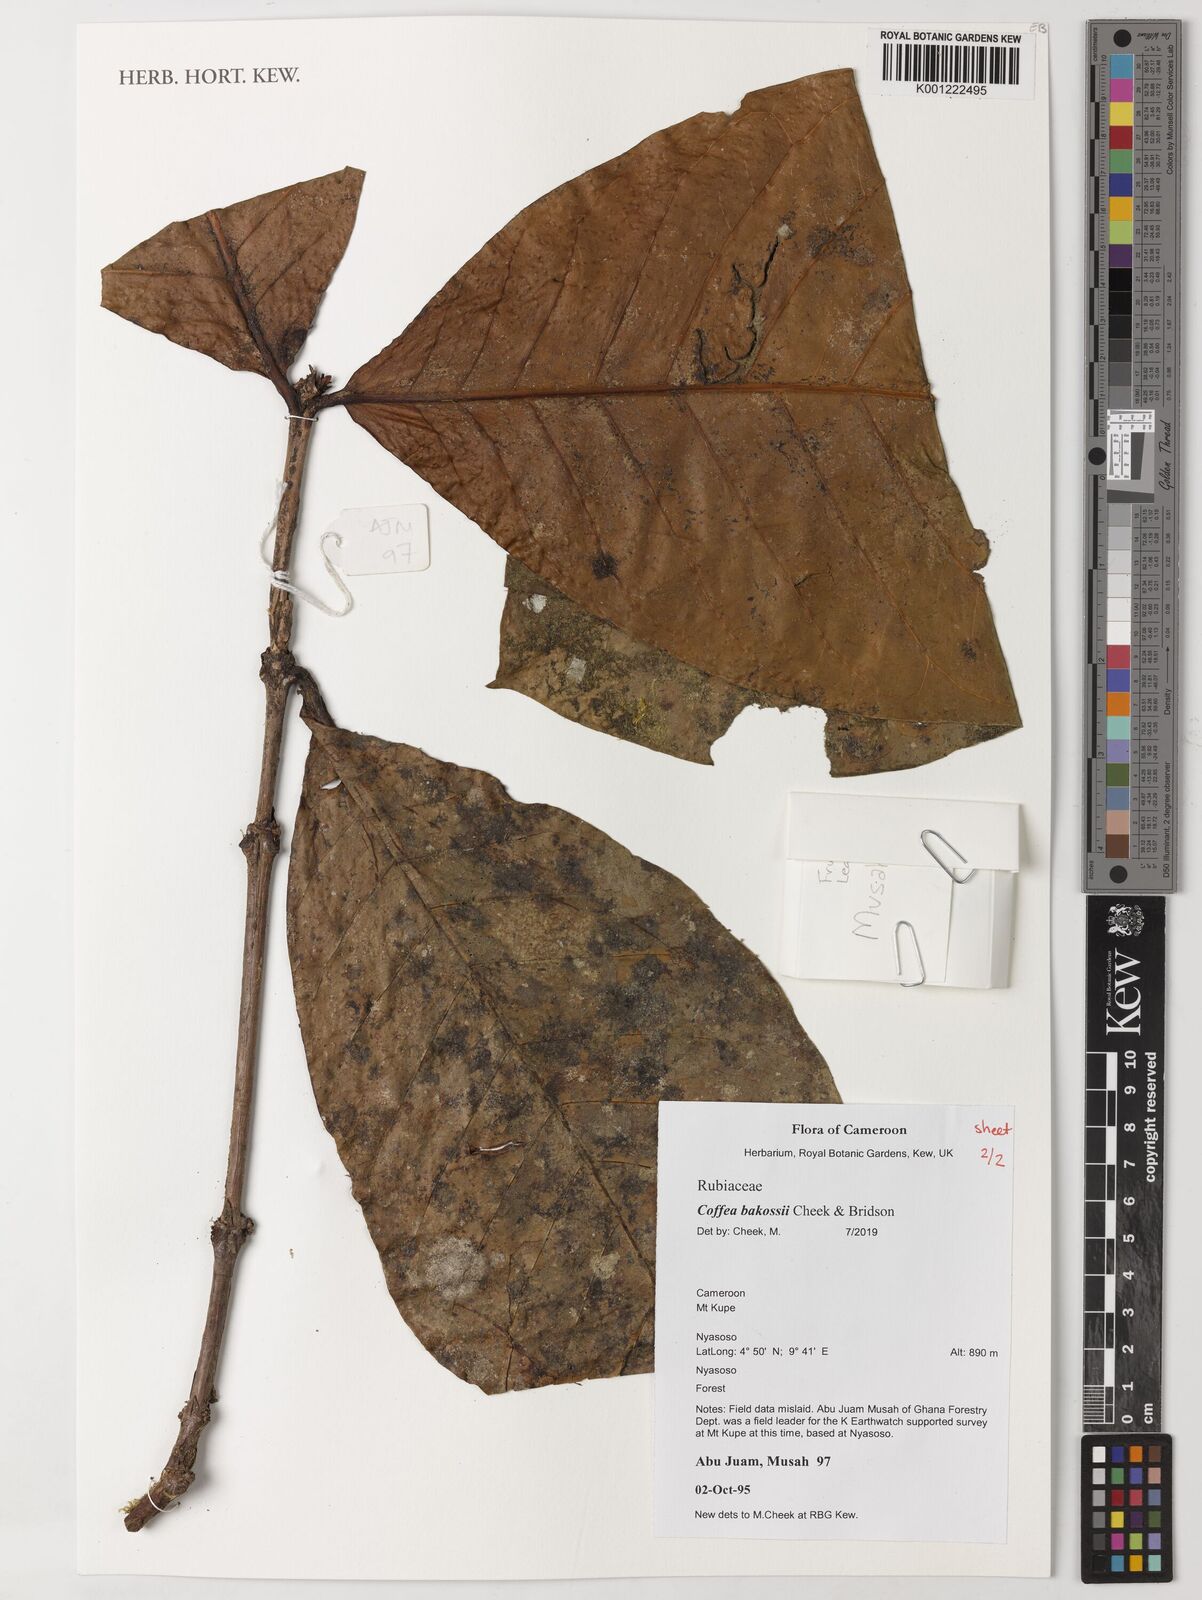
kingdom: Plantae
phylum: Tracheophyta
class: Magnoliopsida
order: Gentianales
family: Rubiaceae
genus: Coffea
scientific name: Coffea bakossii
